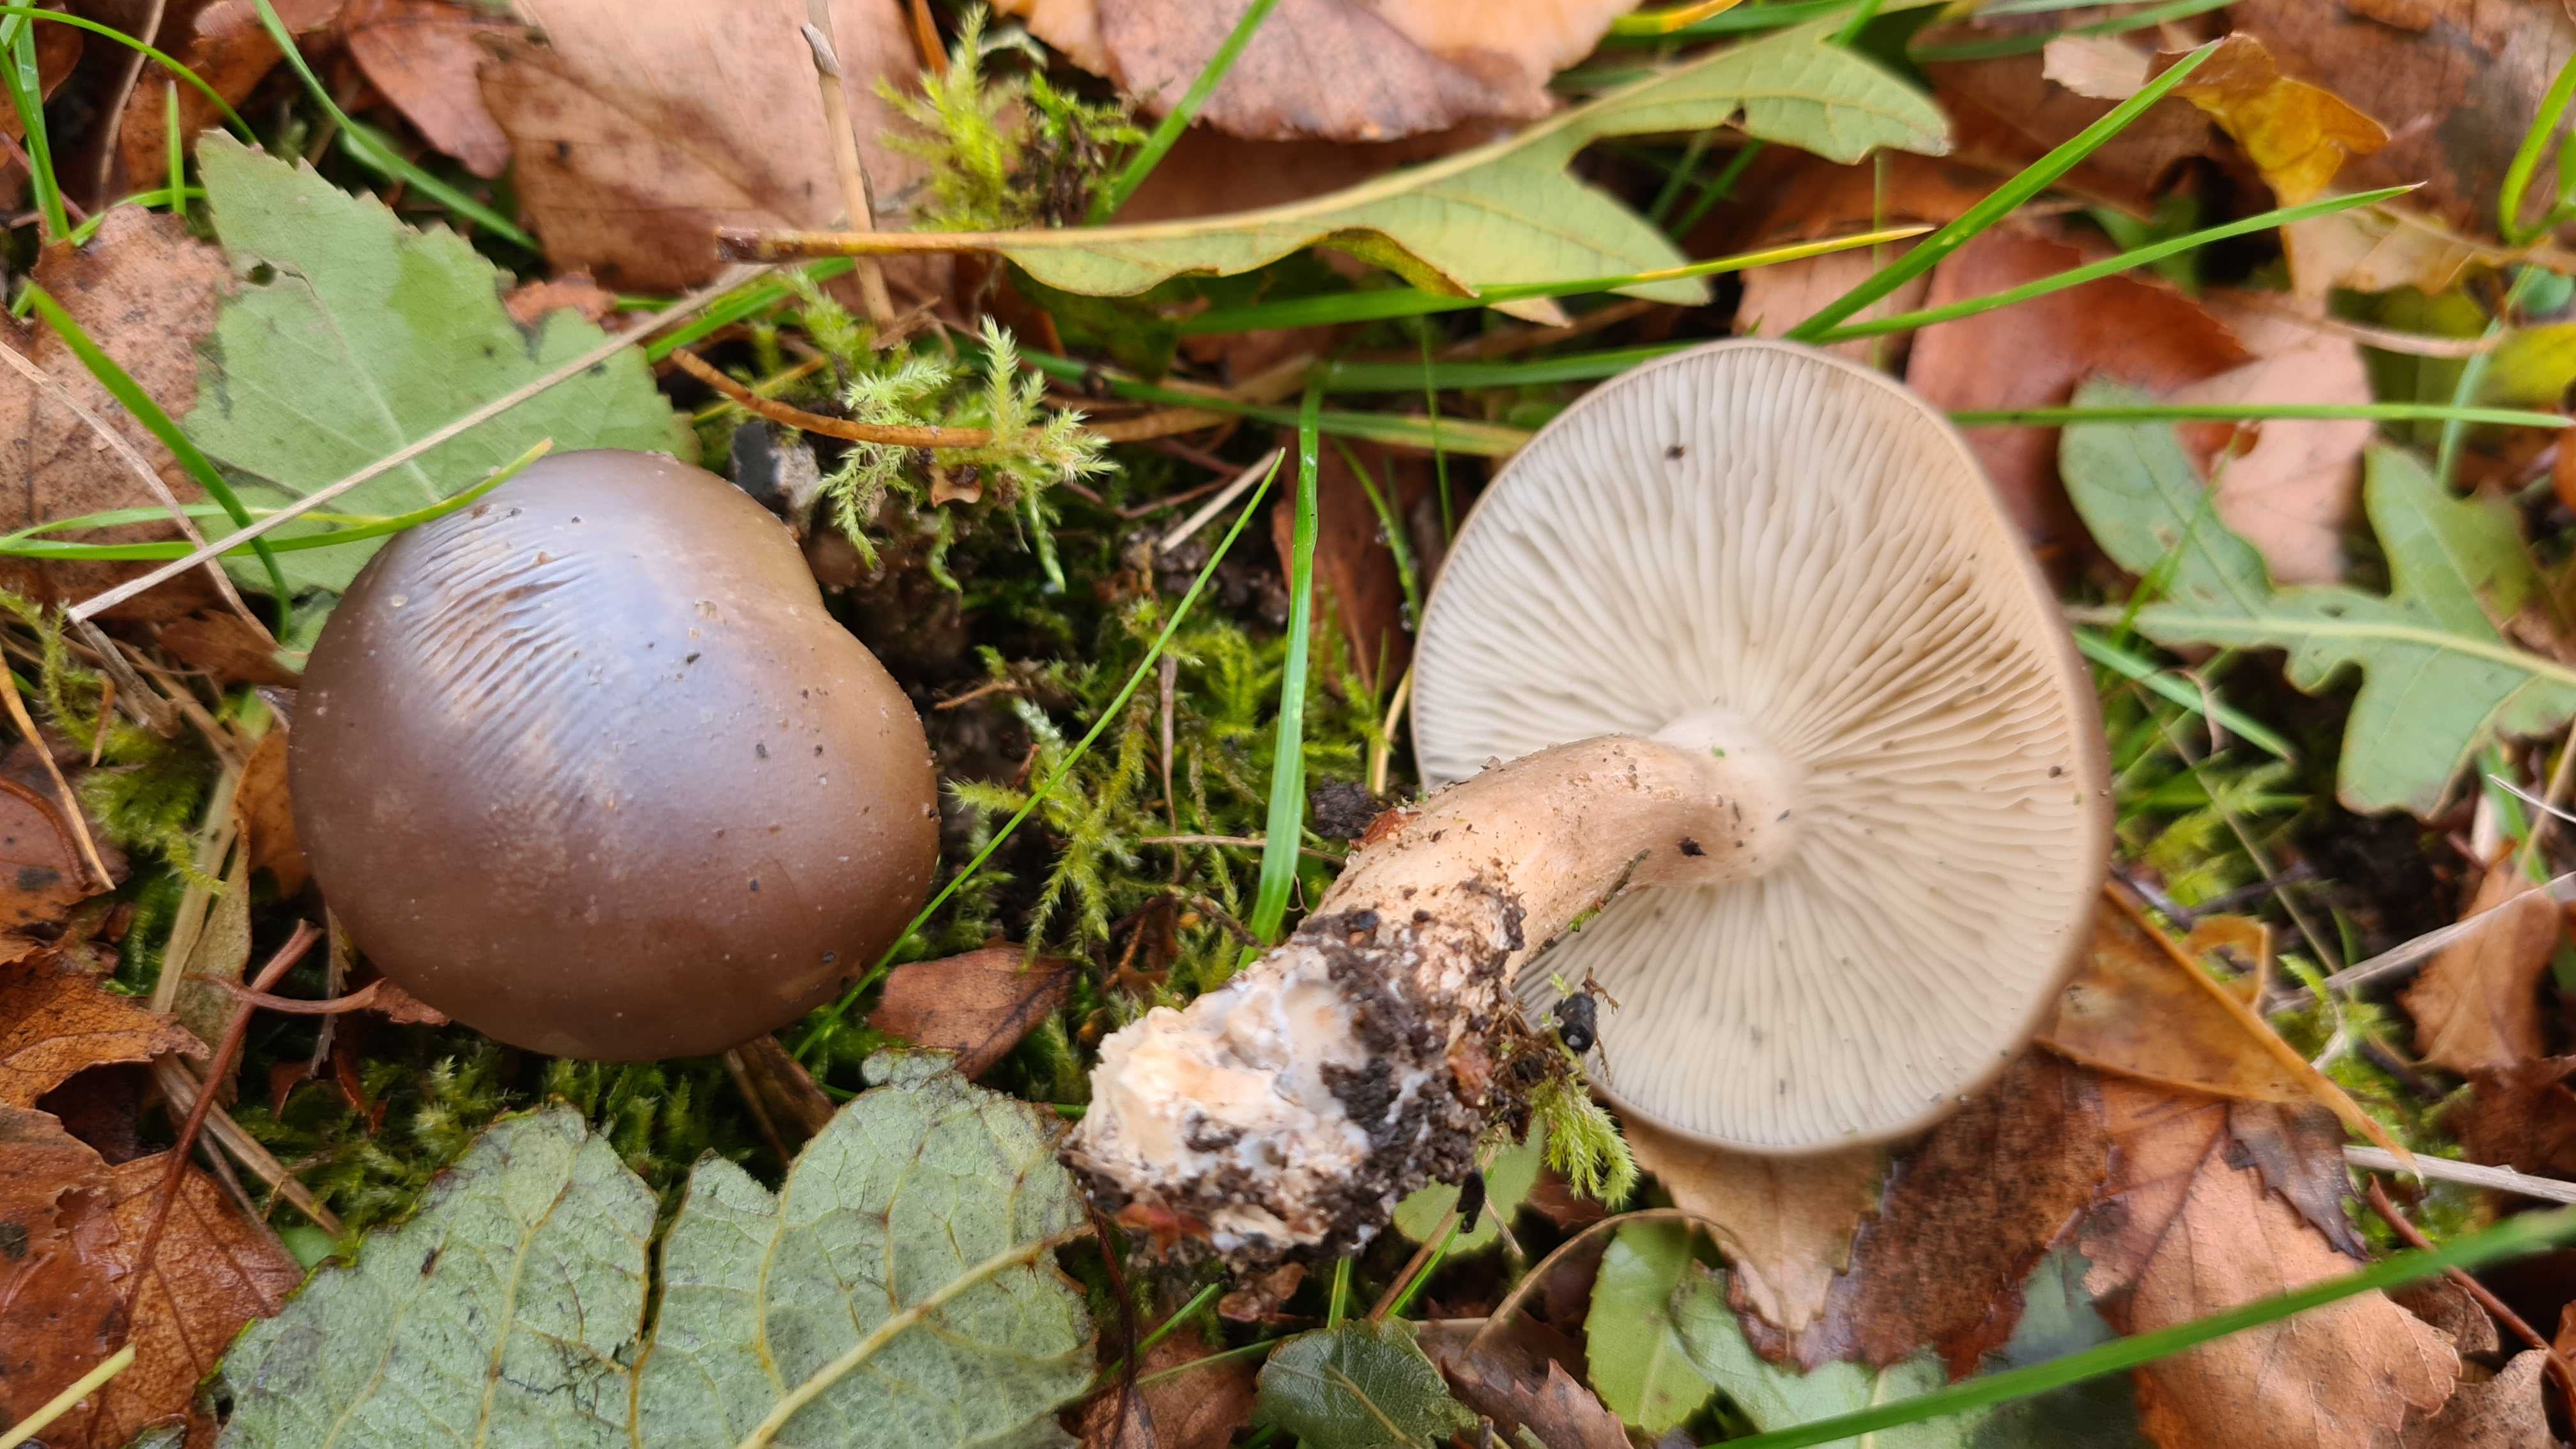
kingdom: Fungi
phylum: Basidiomycota
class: Agaricomycetes
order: Agaricales
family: Lyophyllaceae
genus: Lyophyllum
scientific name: Lyophyllum decastes
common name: Clustered domecap
